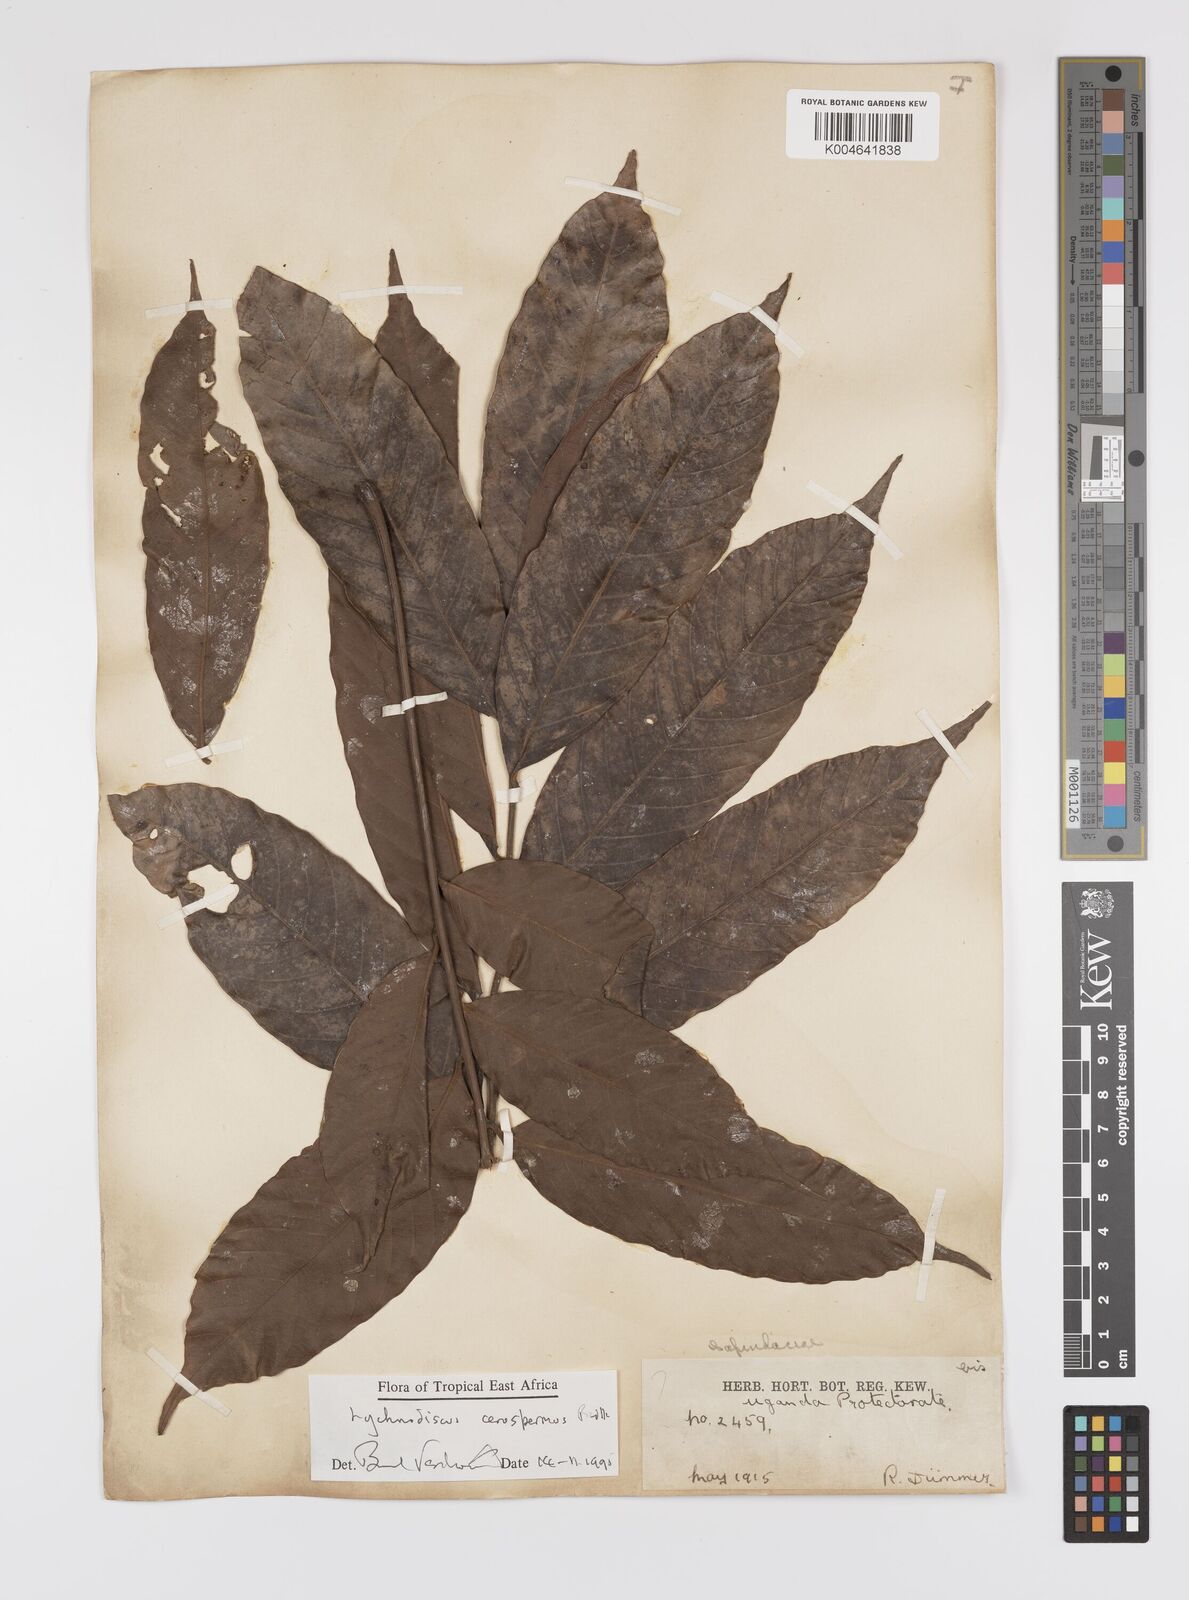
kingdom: Plantae
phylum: Tracheophyta
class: Magnoliopsida
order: Sapindales
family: Sapindaceae
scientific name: Sapindaceae
